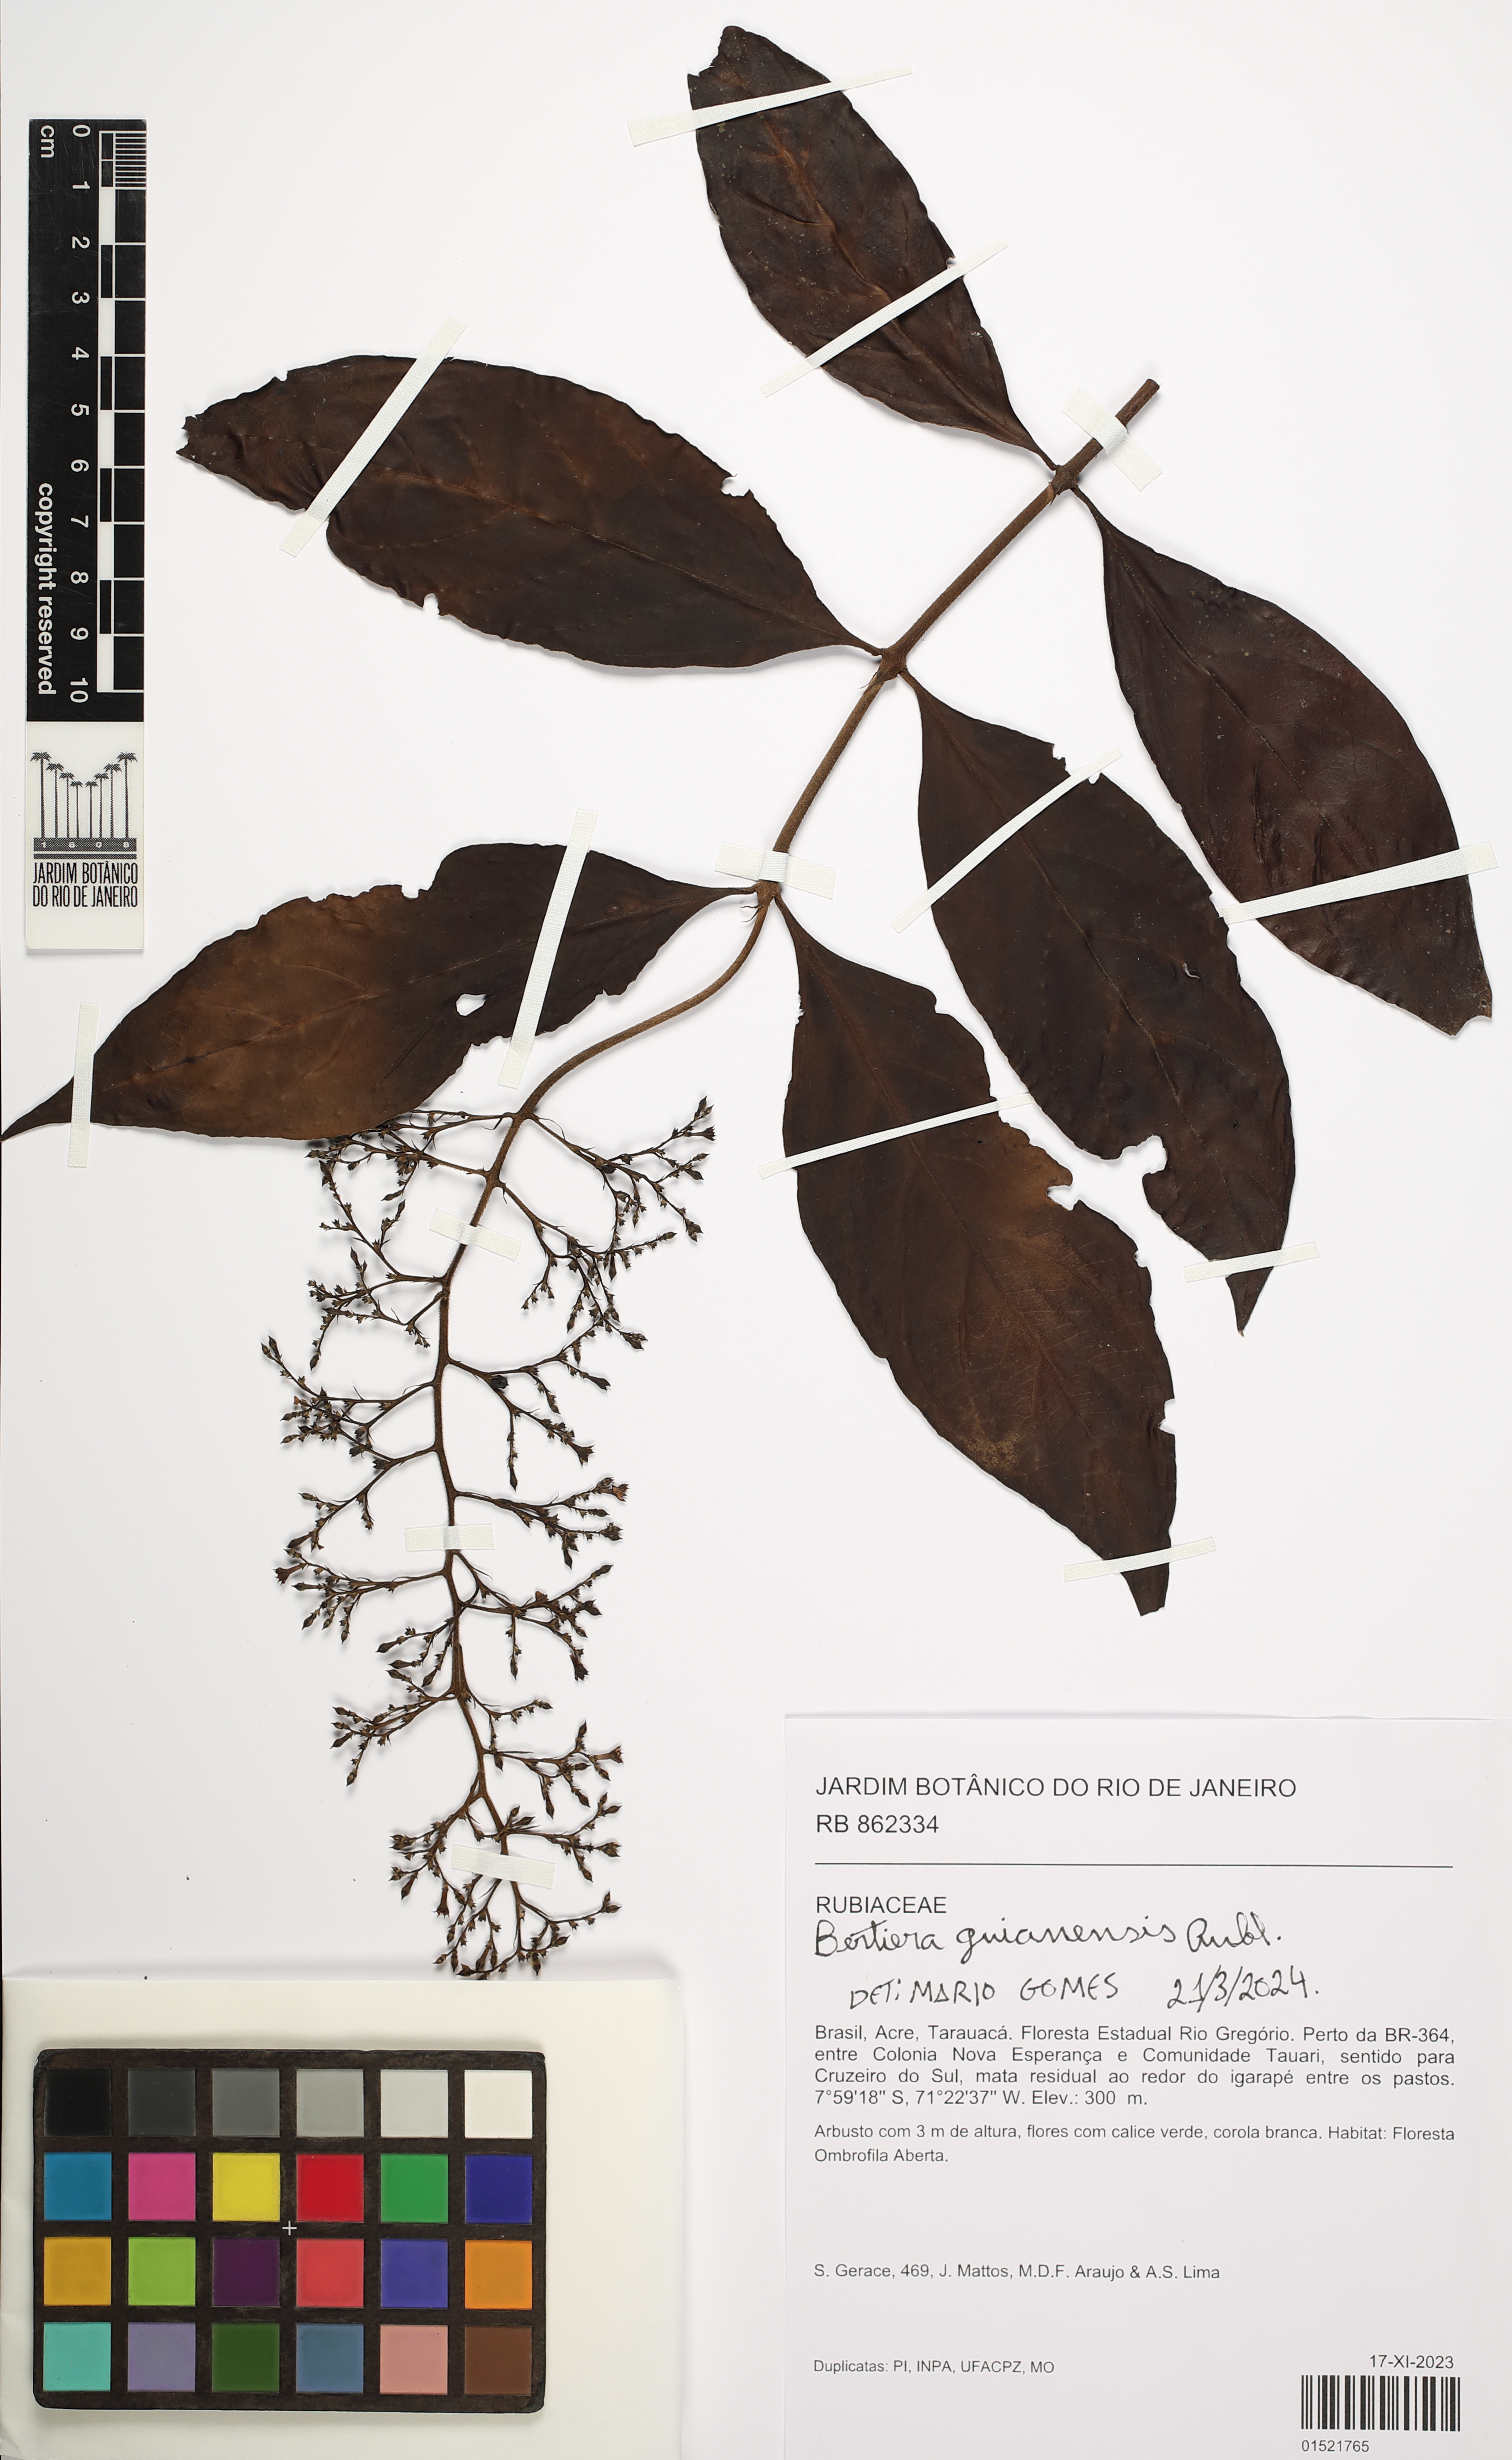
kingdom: Plantae
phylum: Tracheophyta
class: Magnoliopsida
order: Gentianales
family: Rubiaceae
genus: Bertiera
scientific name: Bertiera guianensis
